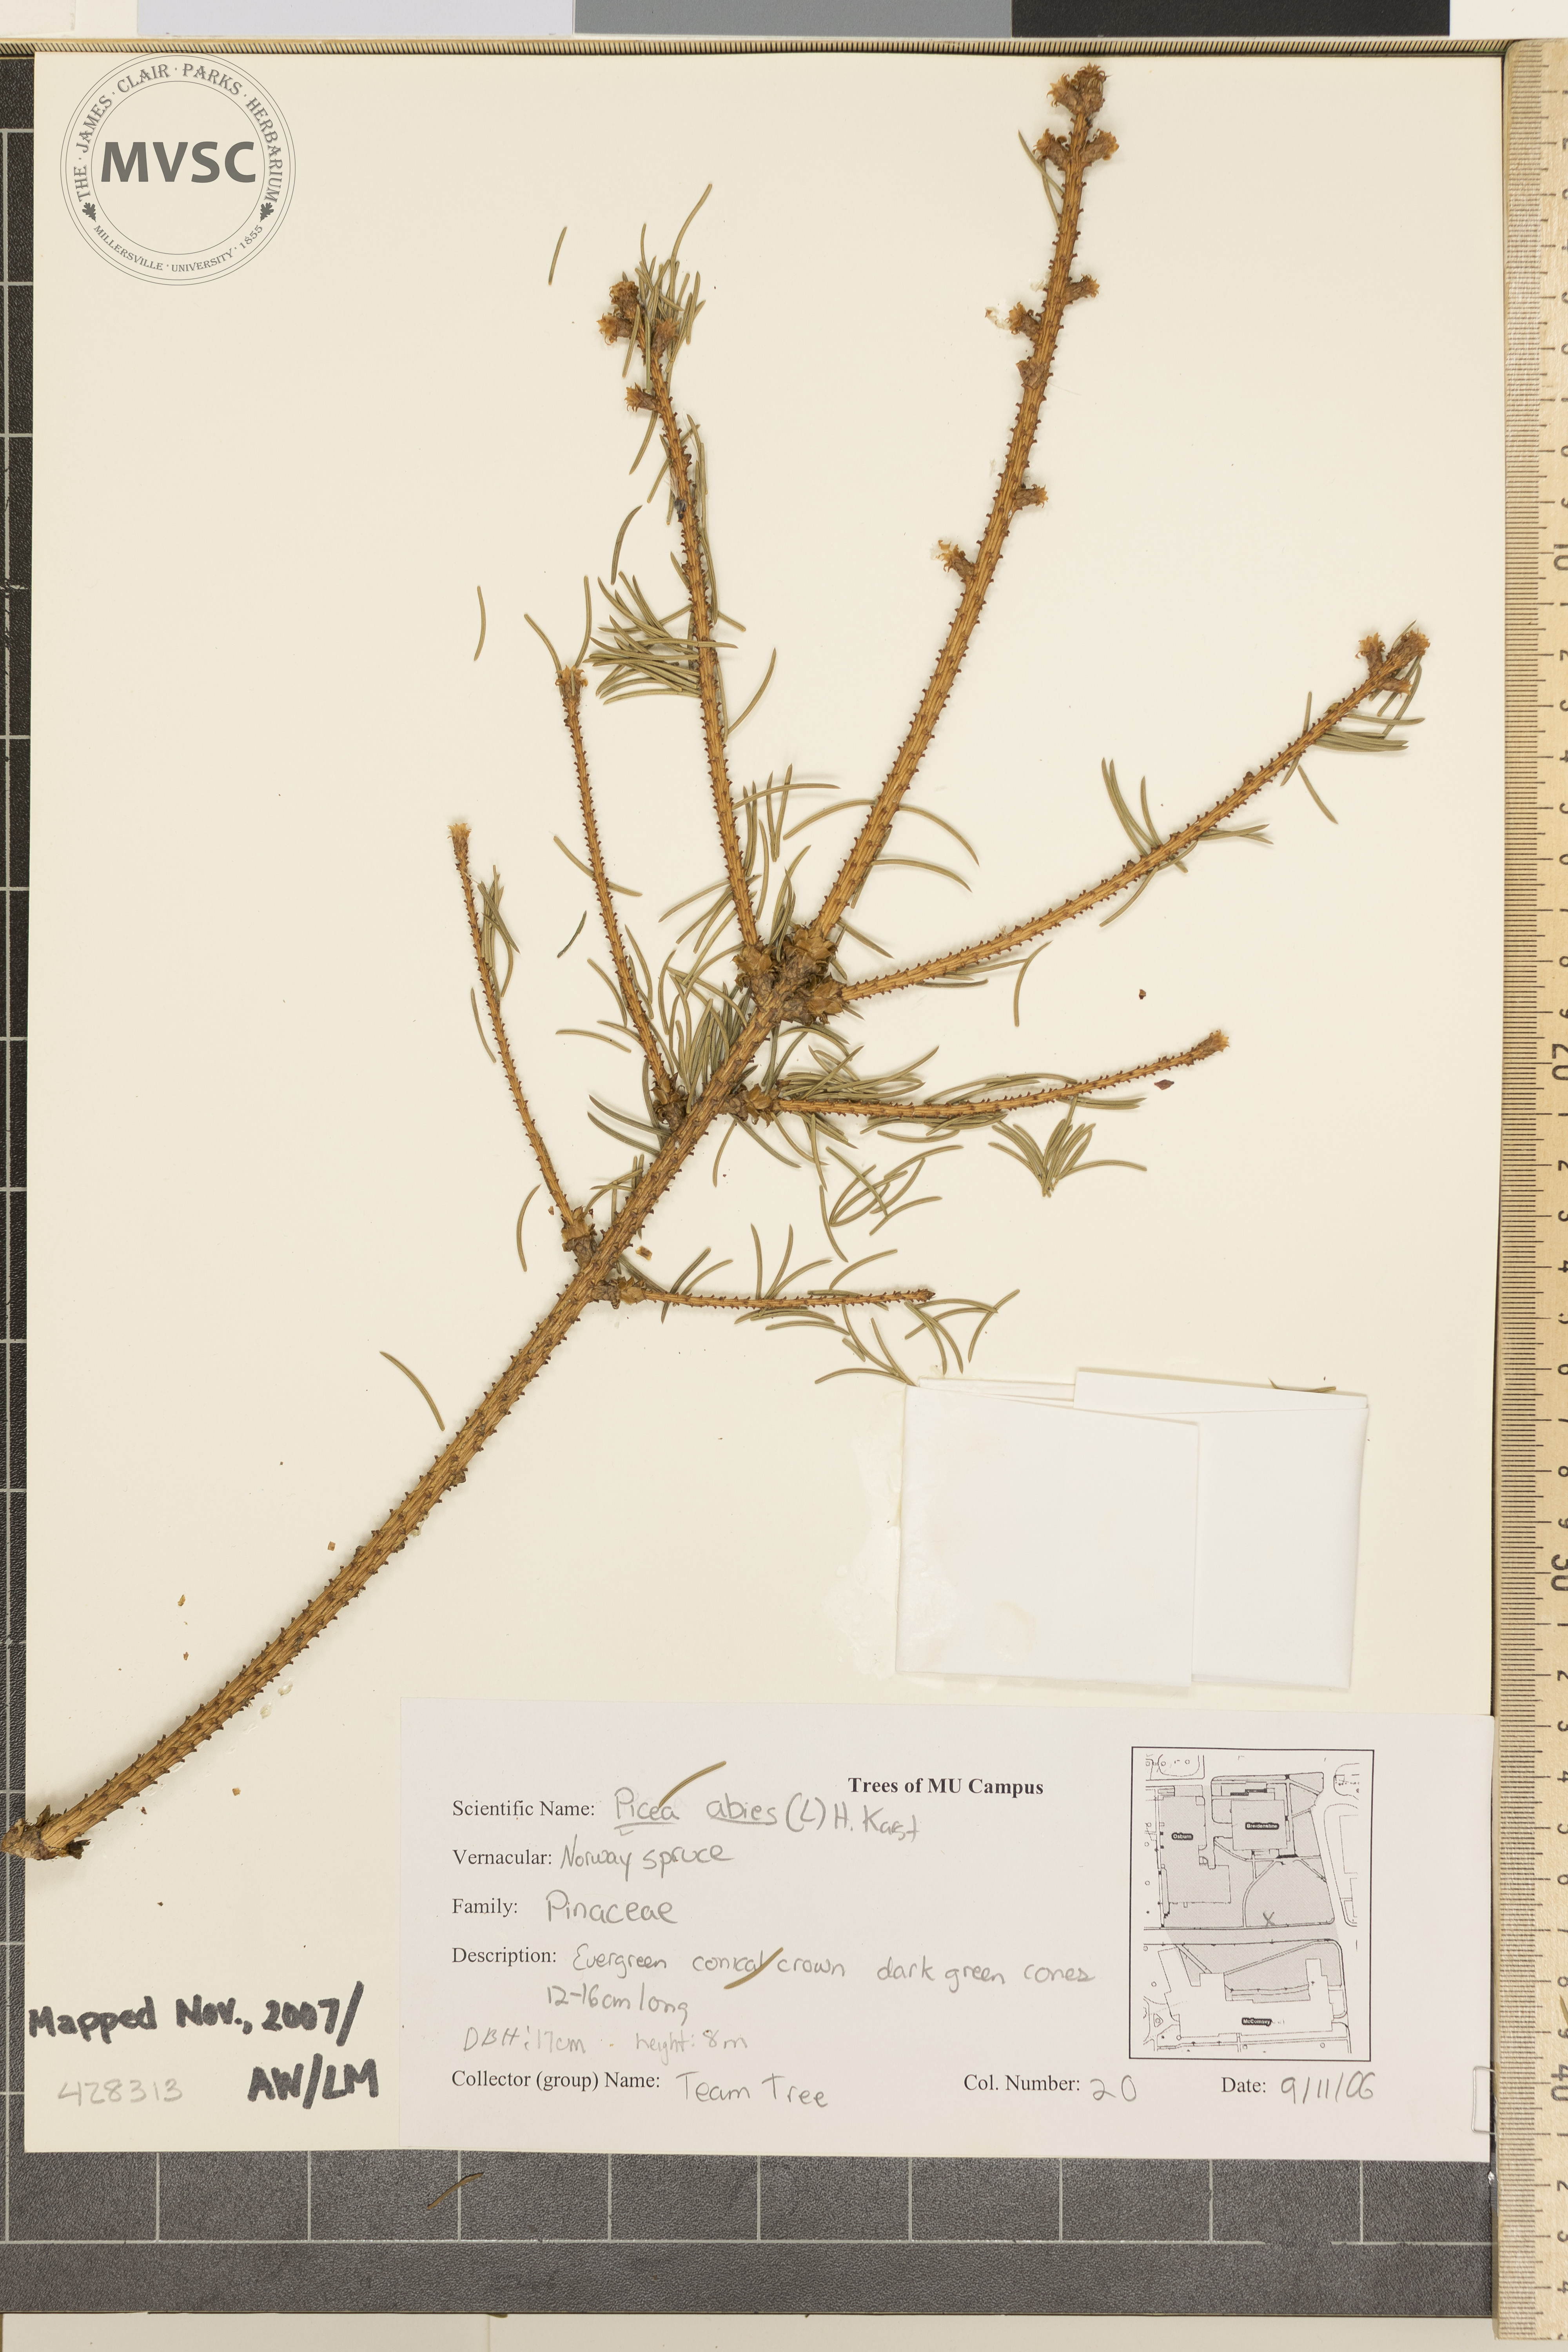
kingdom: Plantae
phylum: Tracheophyta
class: Pinopsida
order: Pinales
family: Pinaceae
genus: Picea
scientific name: Picea abies
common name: Norway spruce
